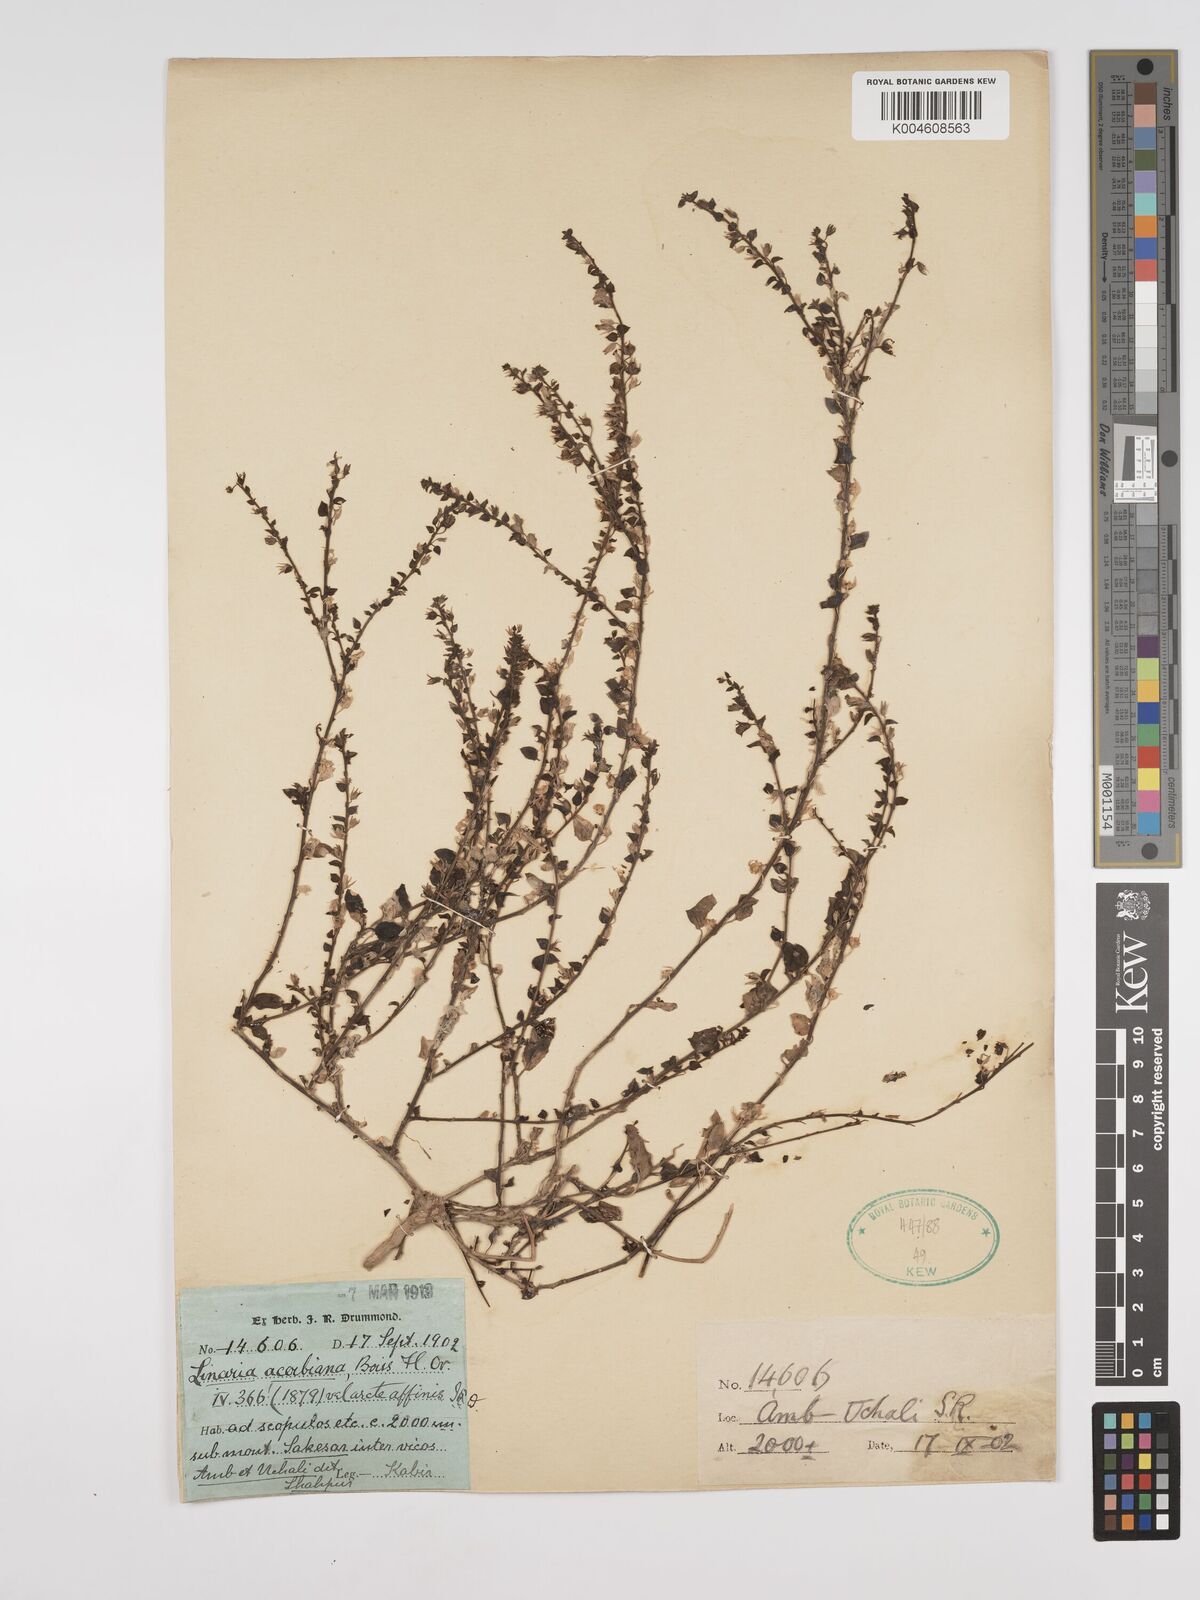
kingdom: Plantae
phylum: Tracheophyta
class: Magnoliopsida
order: Lamiales
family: Plantaginaceae
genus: Nanorrhinum
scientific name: Nanorrhinum ramosissimum
